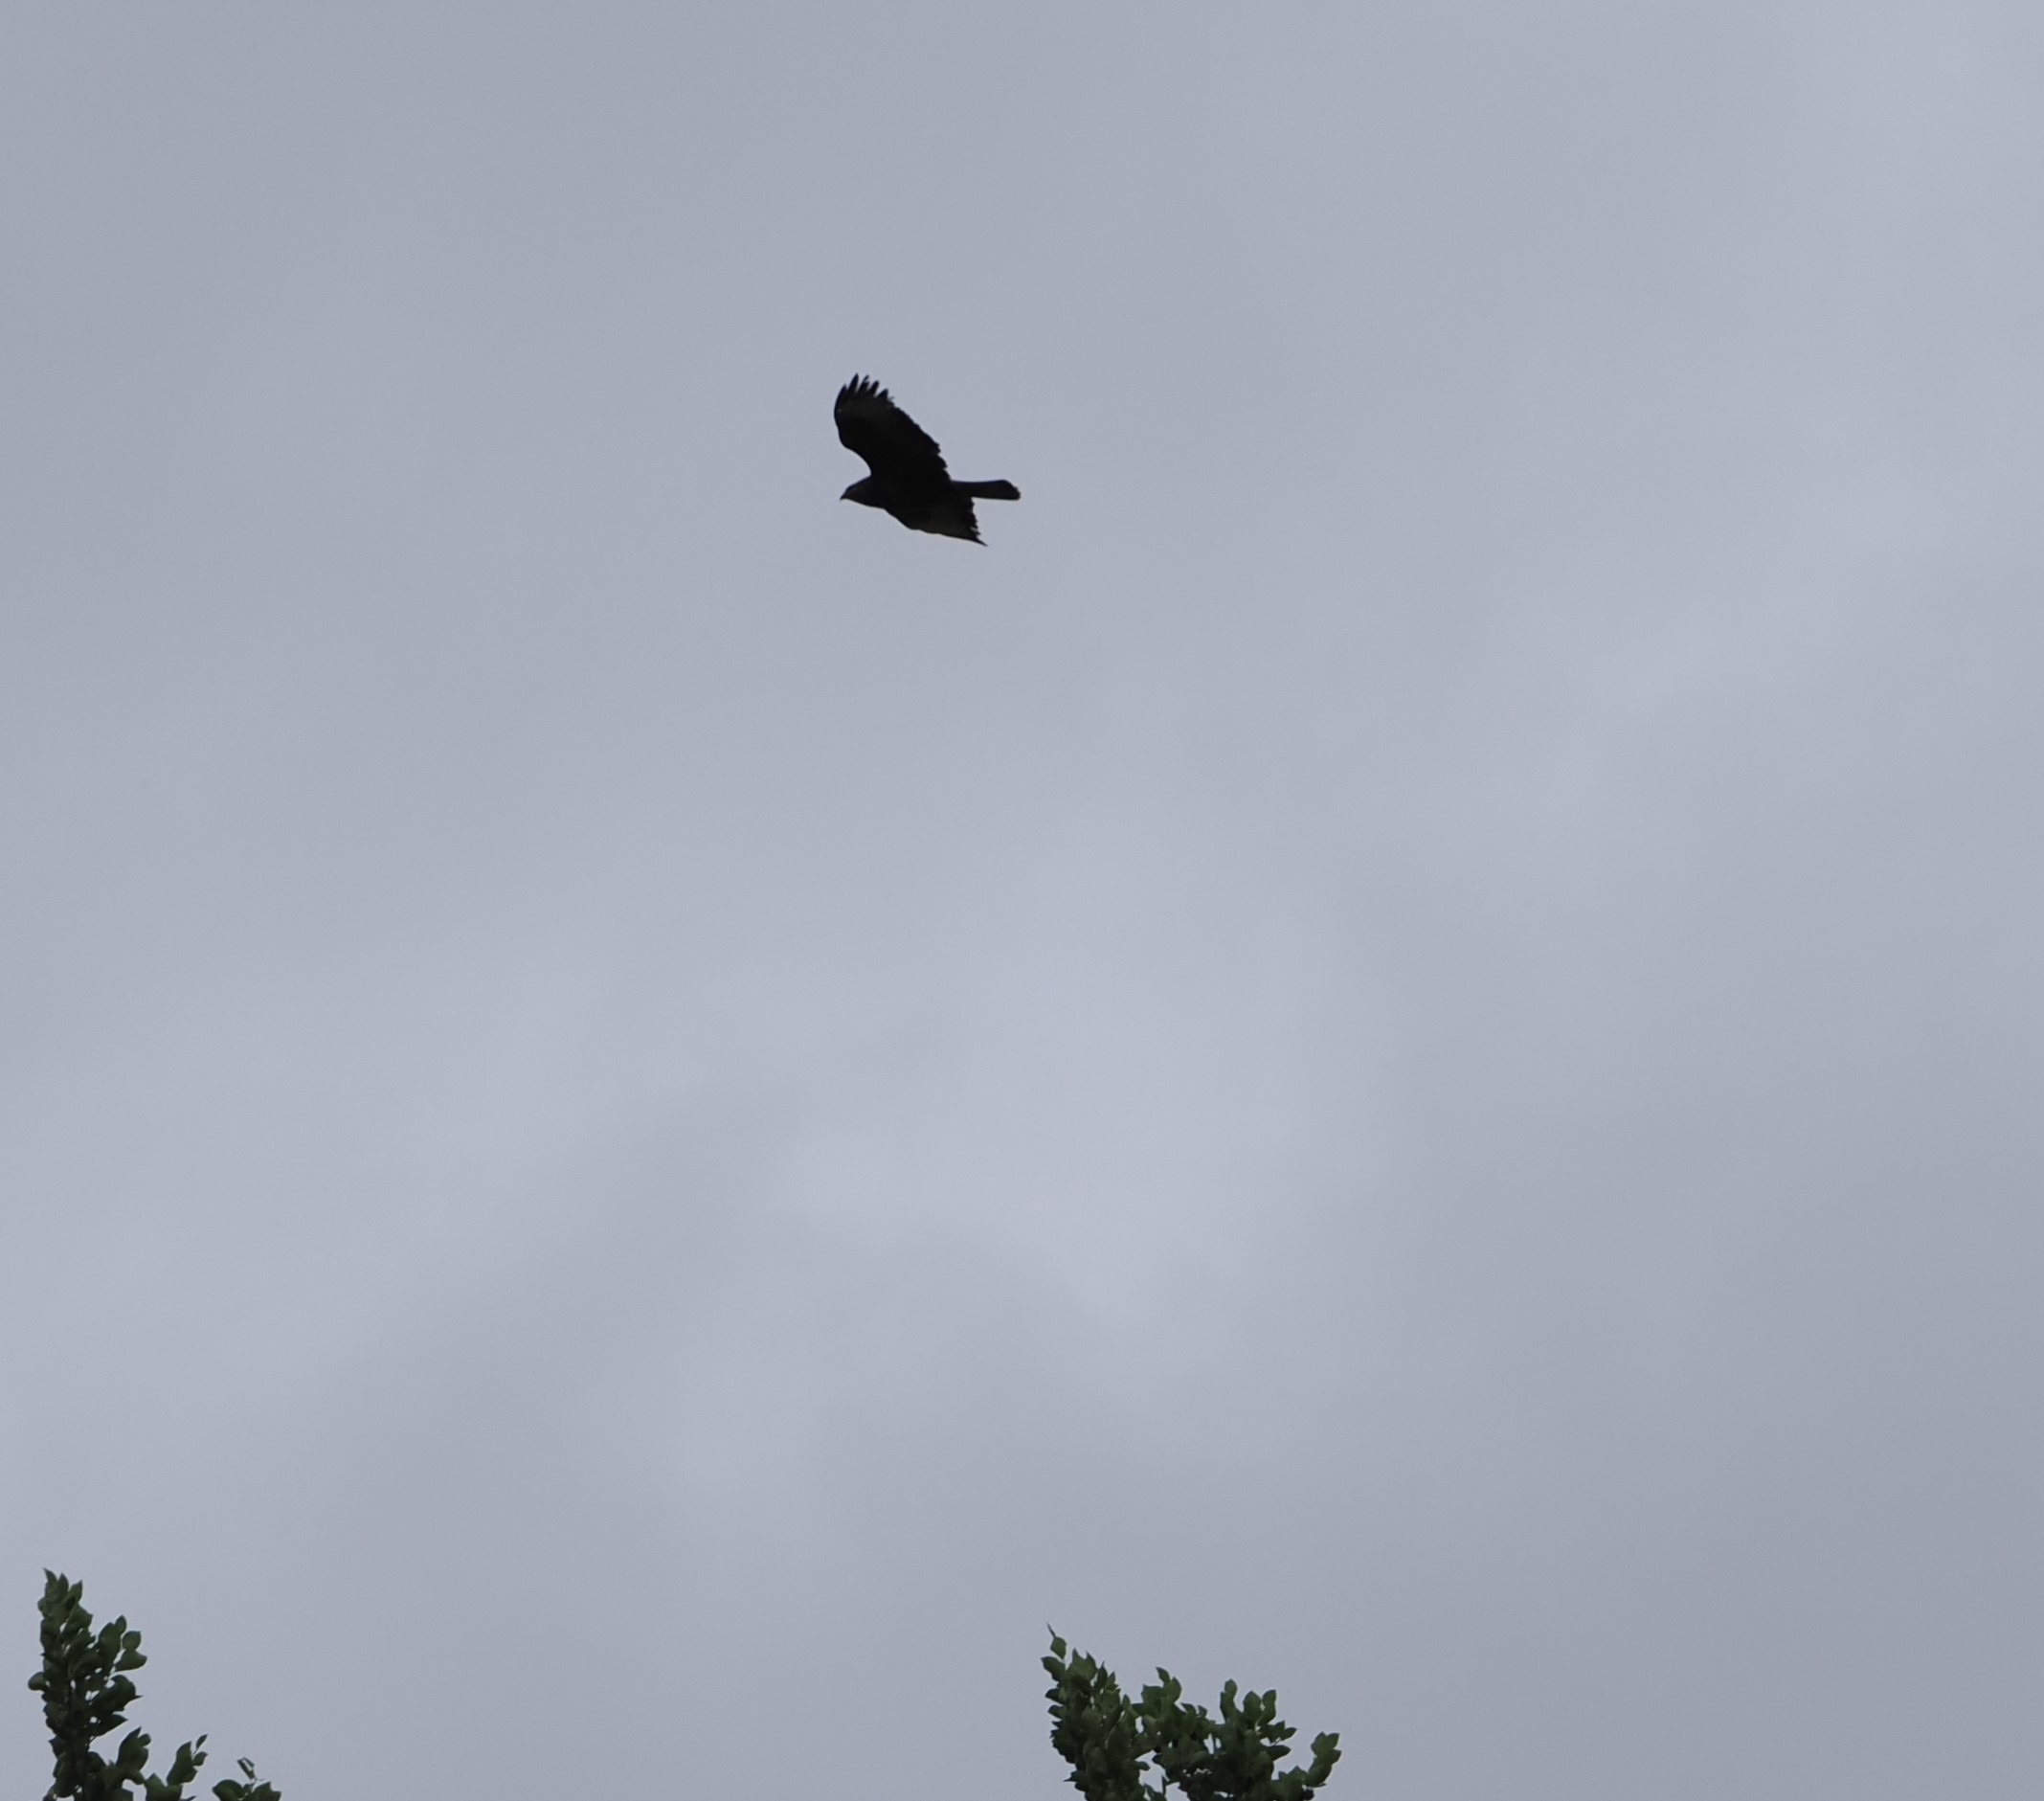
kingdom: Animalia
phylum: Chordata
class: Aves
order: Accipitriformes
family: Accipitridae
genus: Buteo
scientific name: Buteo buteo
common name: Musvåge
